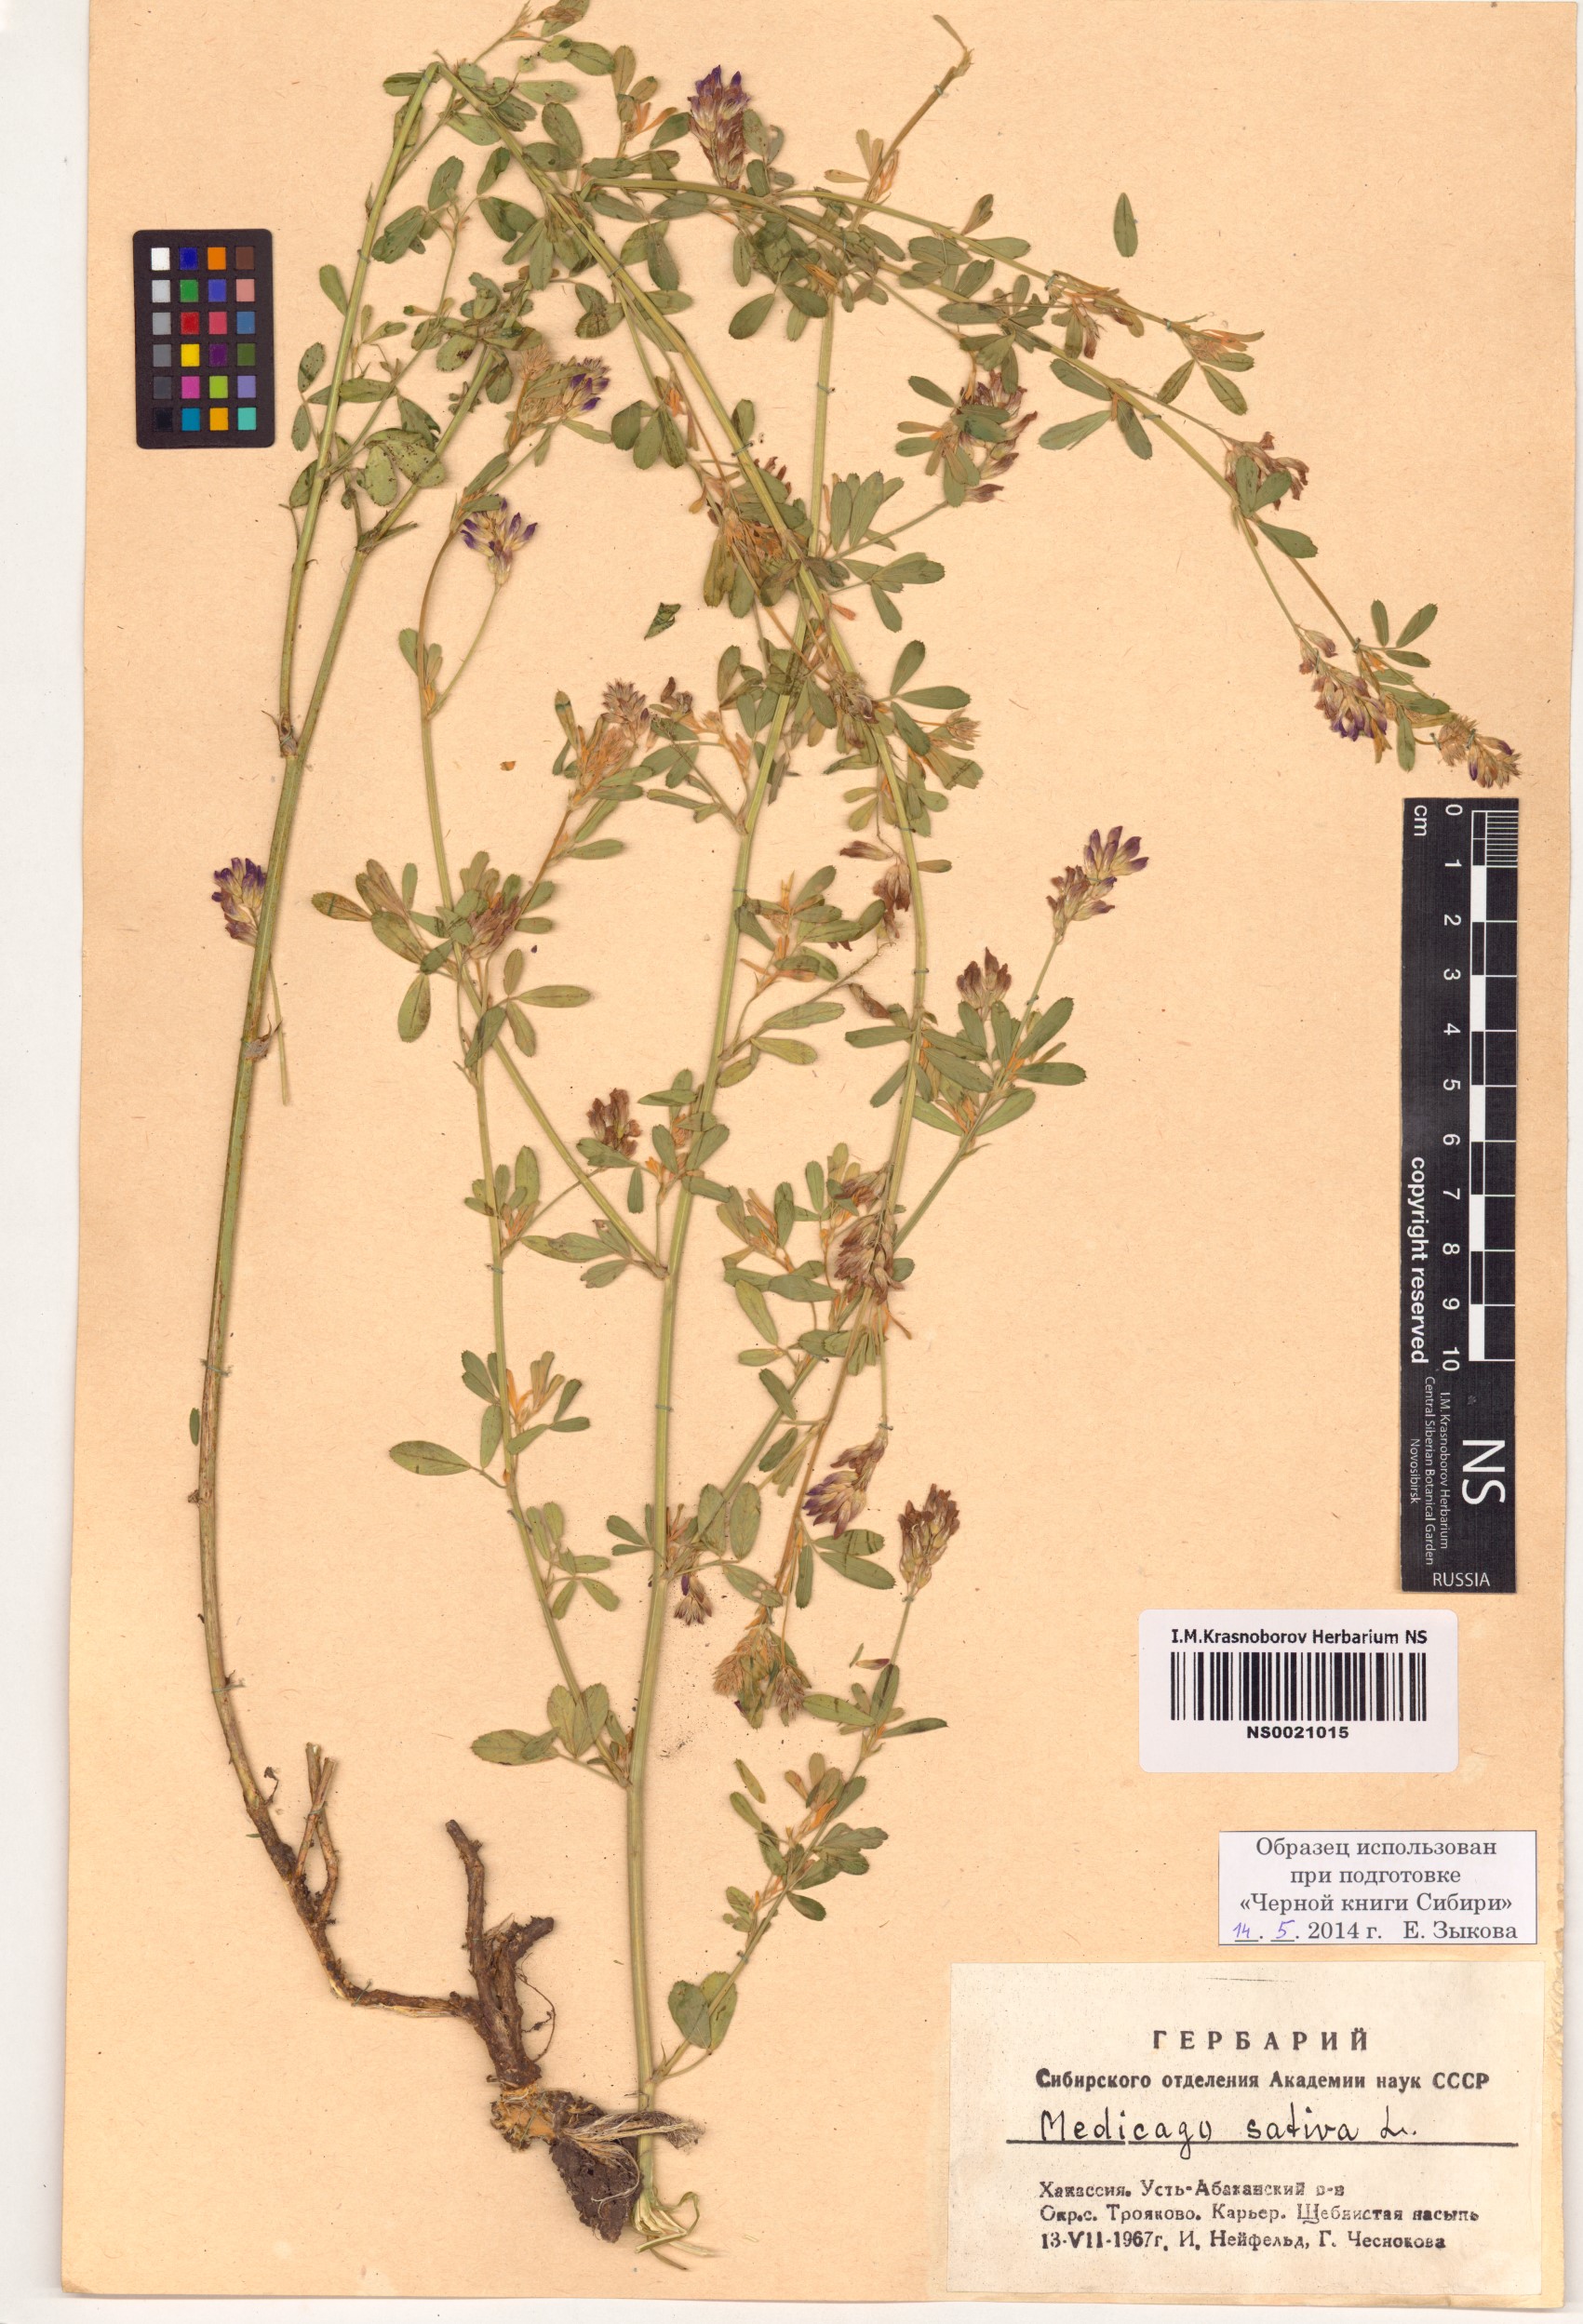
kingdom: Plantae
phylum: Tracheophyta
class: Magnoliopsida
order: Fabales
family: Fabaceae
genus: Medicago
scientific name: Medicago sativa
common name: Alfalfa
